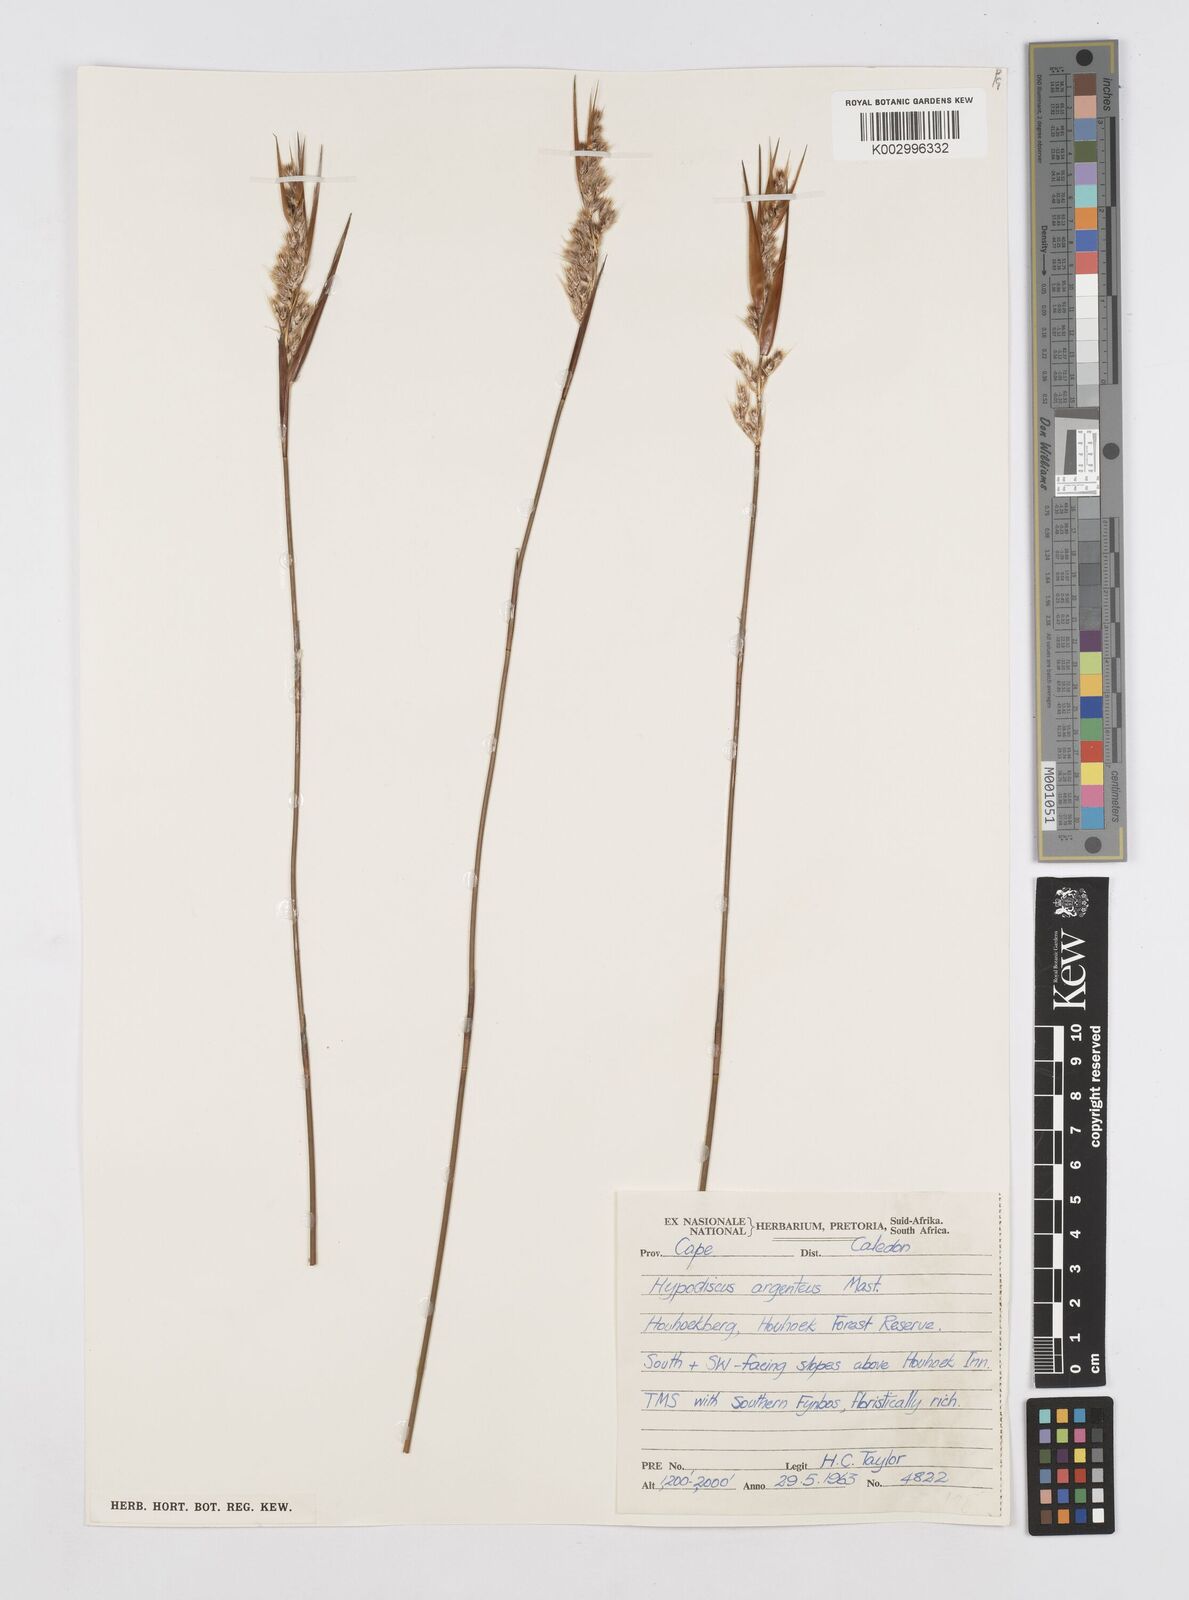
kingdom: Plantae
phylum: Tracheophyta
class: Liliopsida
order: Poales
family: Restionaceae
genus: Hypodiscus
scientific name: Hypodiscus argenteus
